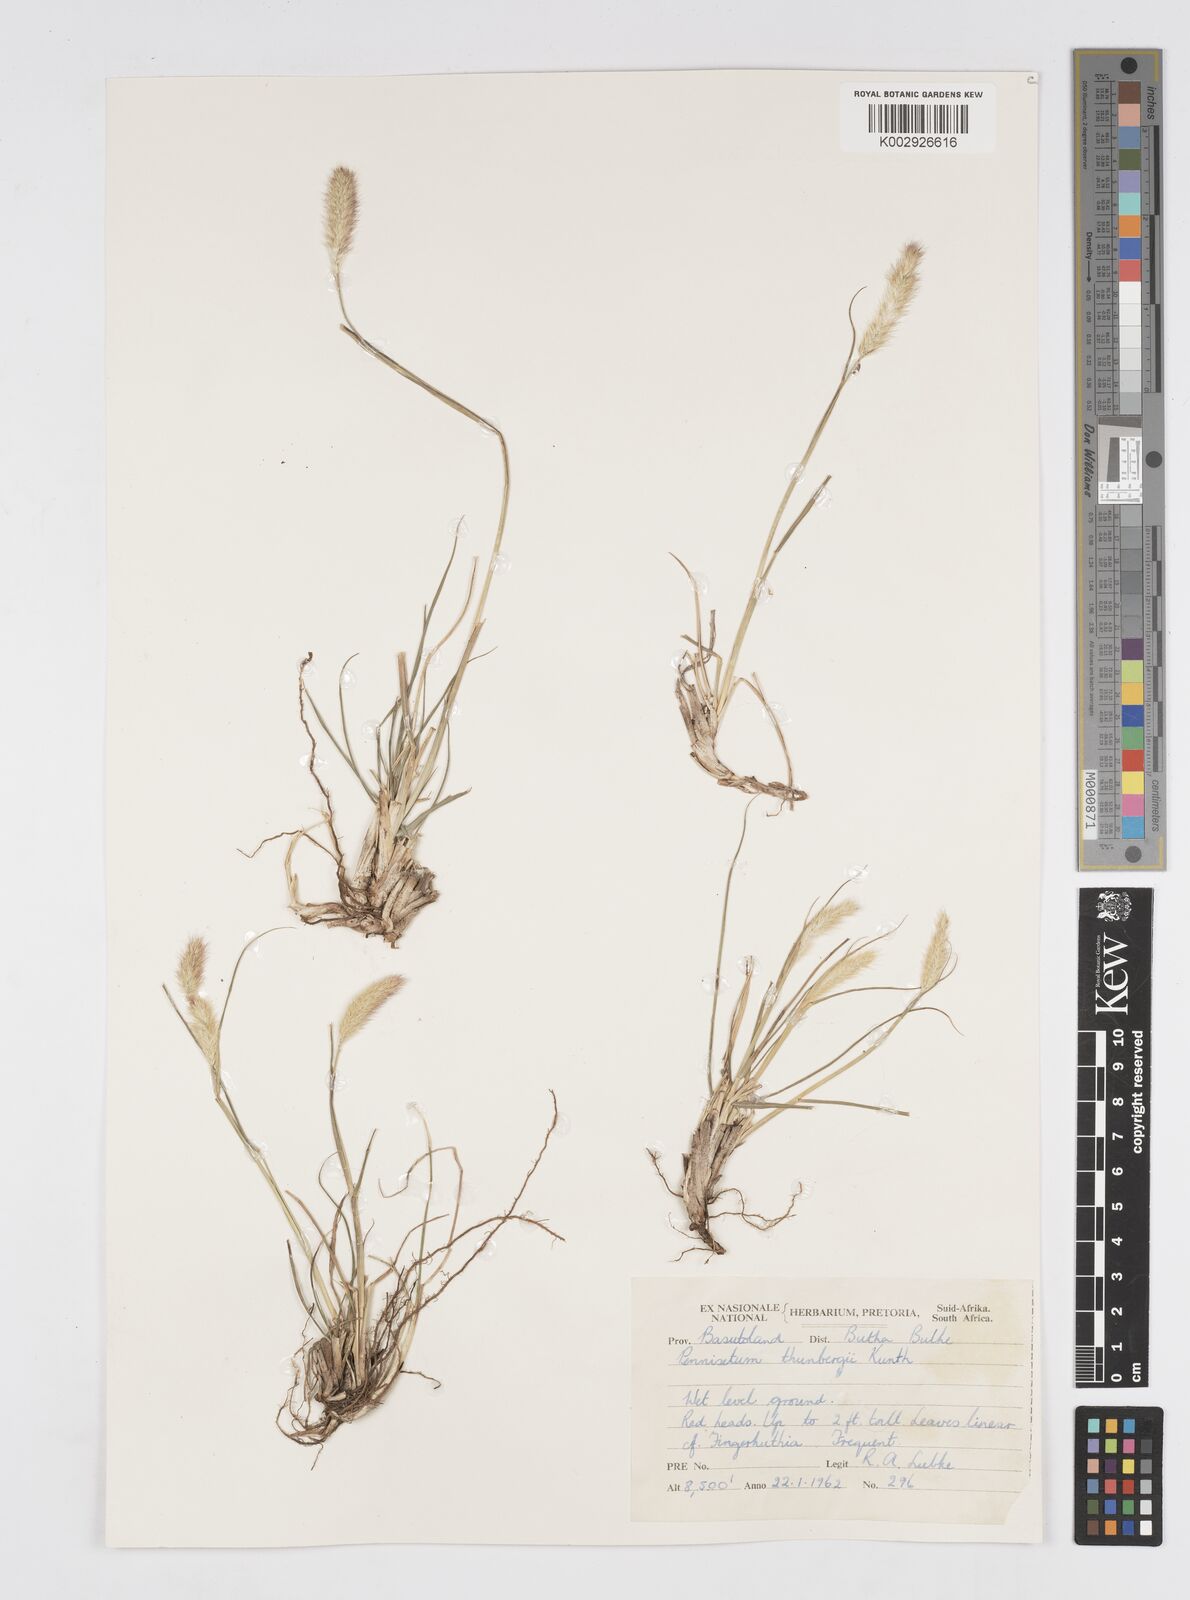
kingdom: Plantae
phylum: Tracheophyta
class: Liliopsida
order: Poales
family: Poaceae
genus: Cenchrus
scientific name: Cenchrus geniculatus
